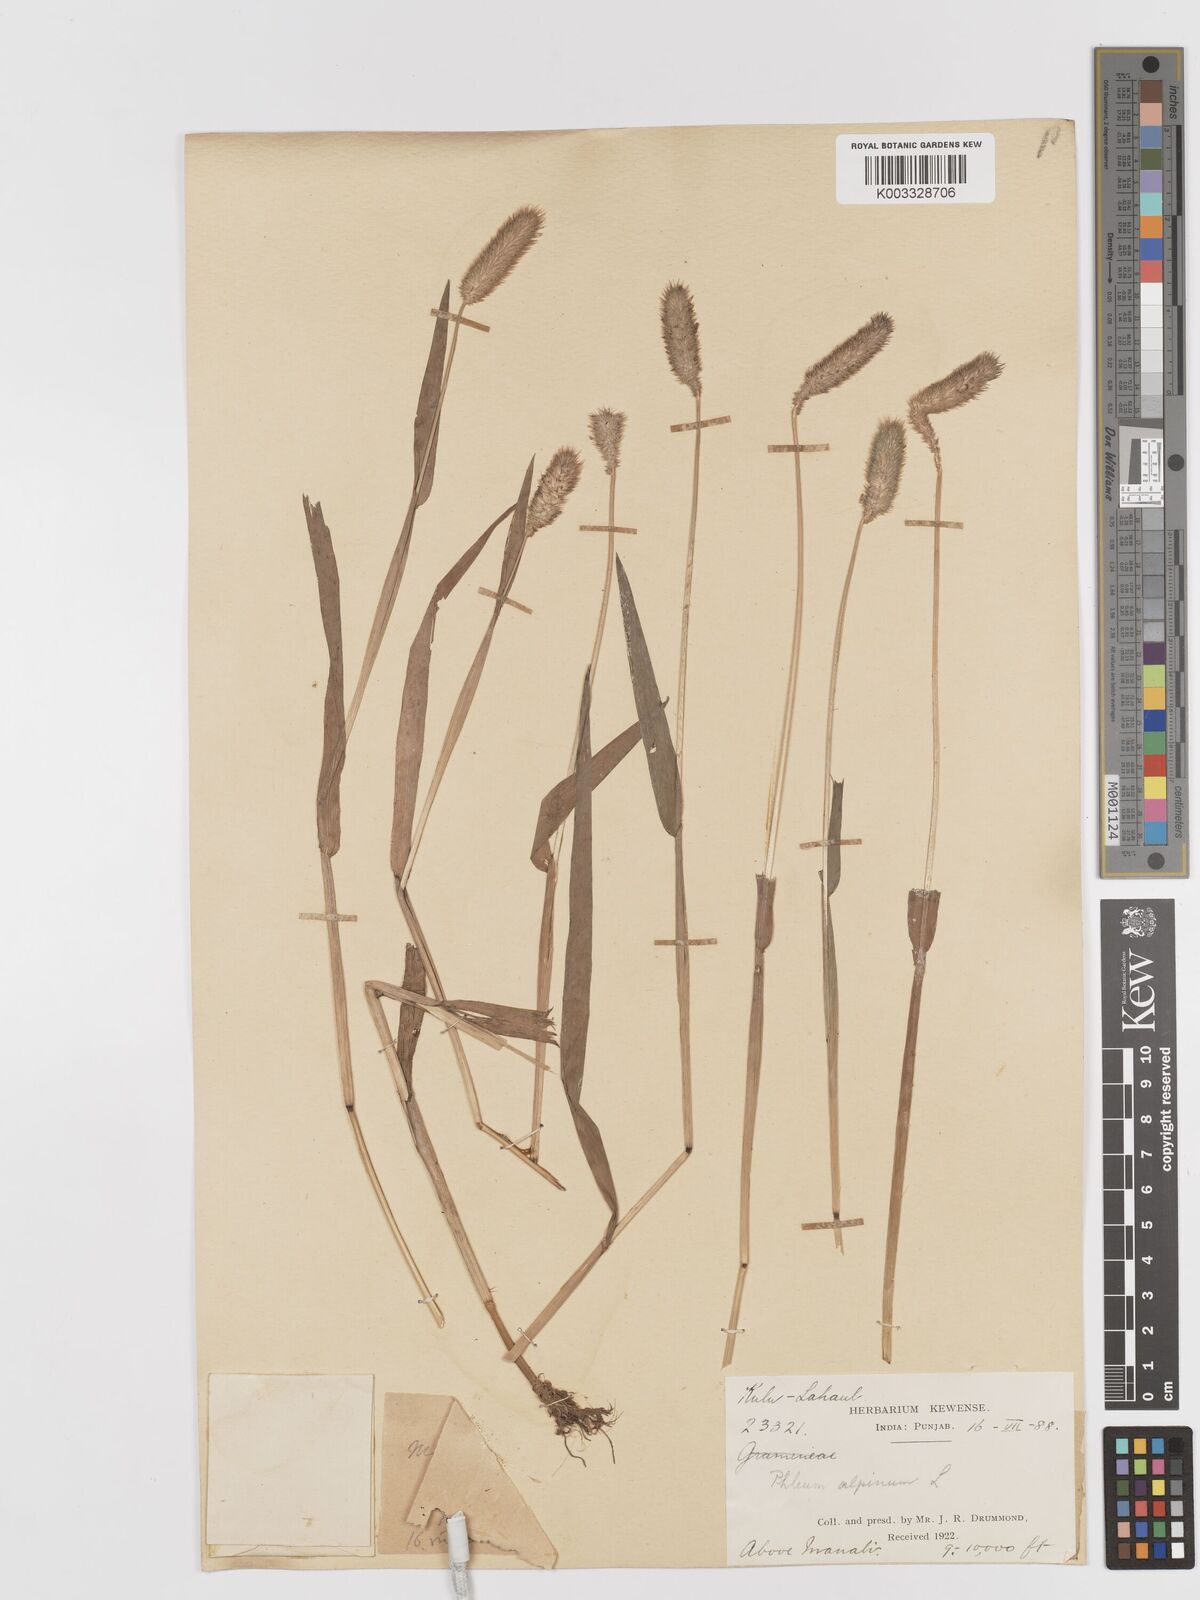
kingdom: Plantae
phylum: Tracheophyta
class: Liliopsida
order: Poales
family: Poaceae
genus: Phleum
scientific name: Phleum alpinum
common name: Alpine cat's-tail
